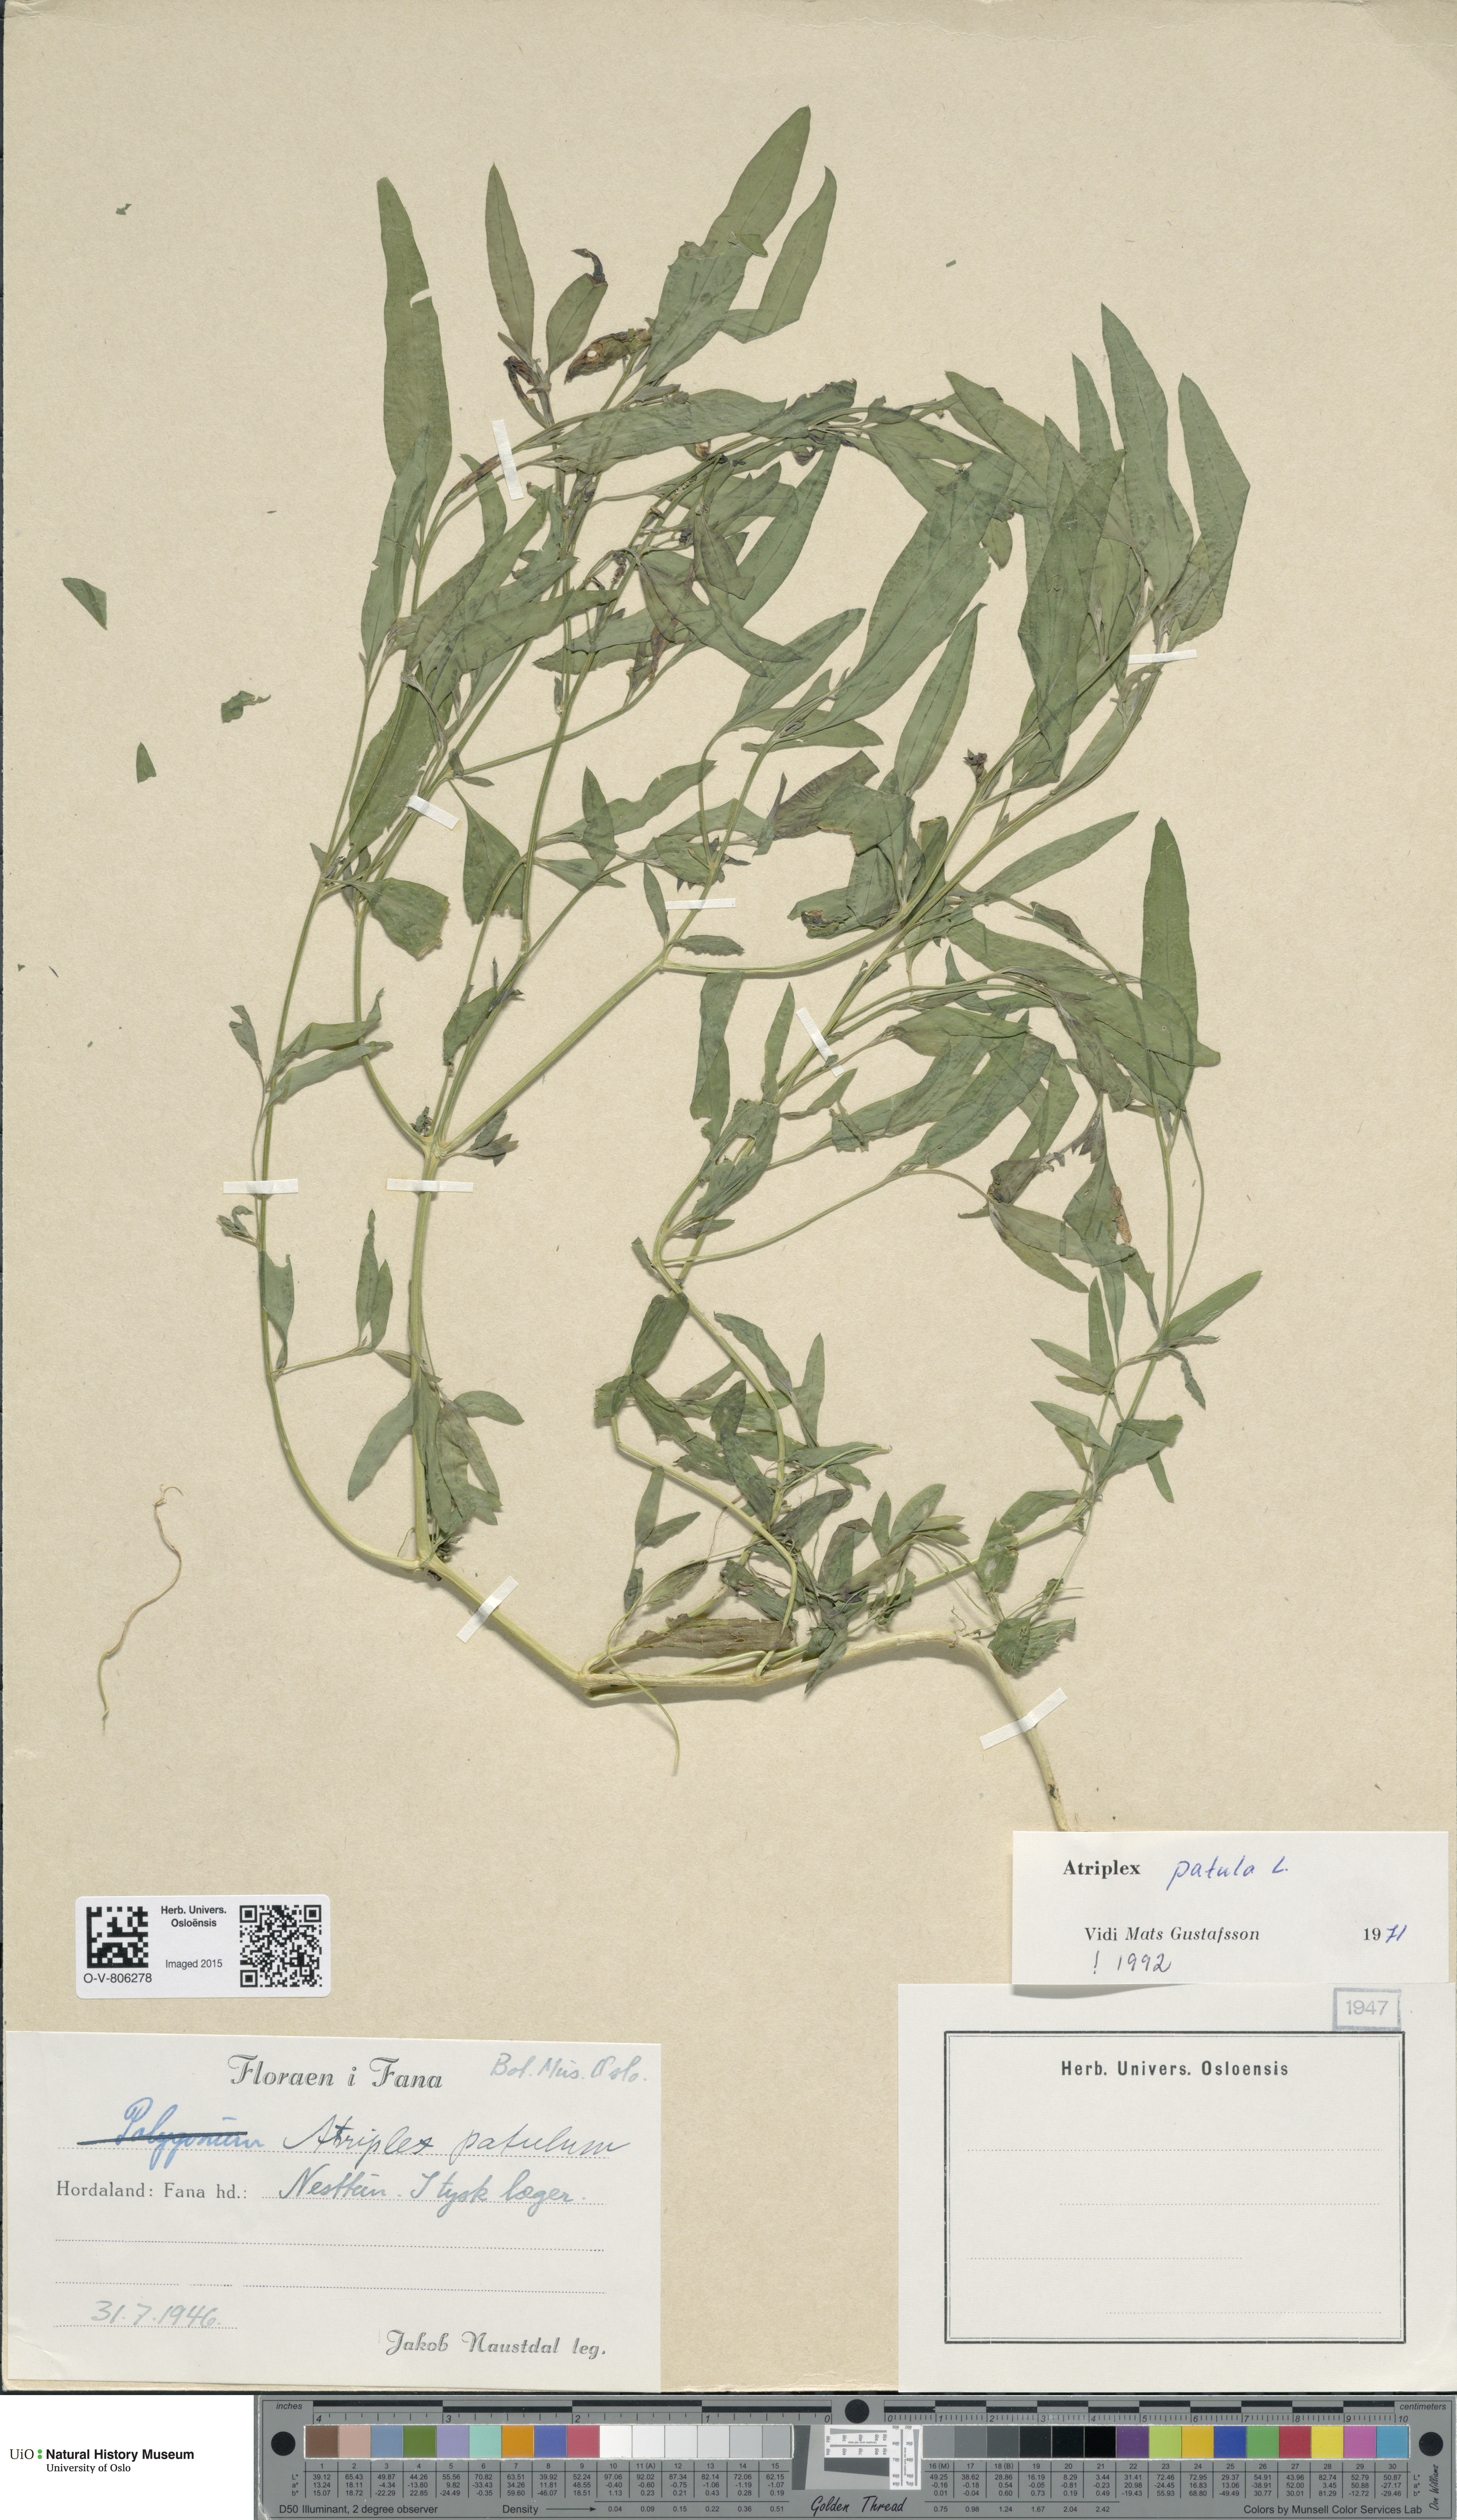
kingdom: Plantae
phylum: Tracheophyta
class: Magnoliopsida
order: Caryophyllales
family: Amaranthaceae
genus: Atriplex
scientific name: Atriplex patula
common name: Common orache
